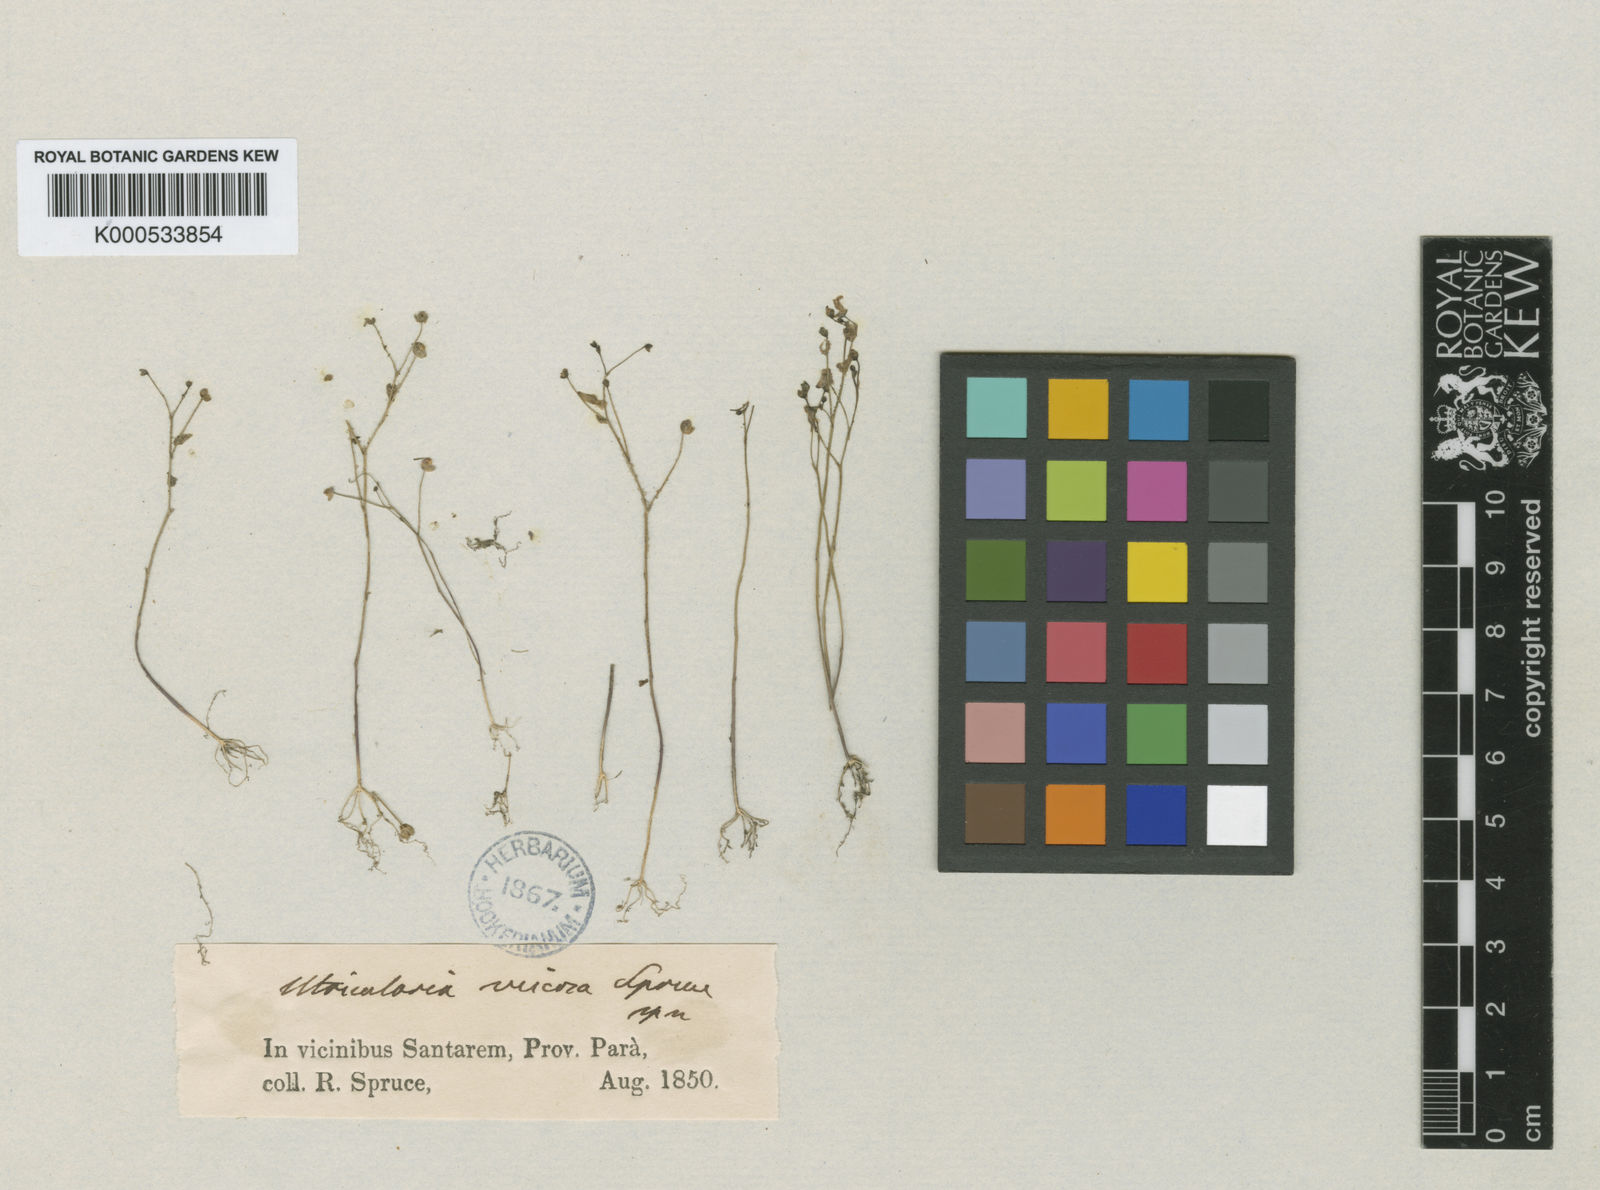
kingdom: Plantae
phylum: Tracheophyta
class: Magnoliopsida
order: Lamiales
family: Lentibulariaceae
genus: Utricularia
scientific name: Utricularia viscosa
